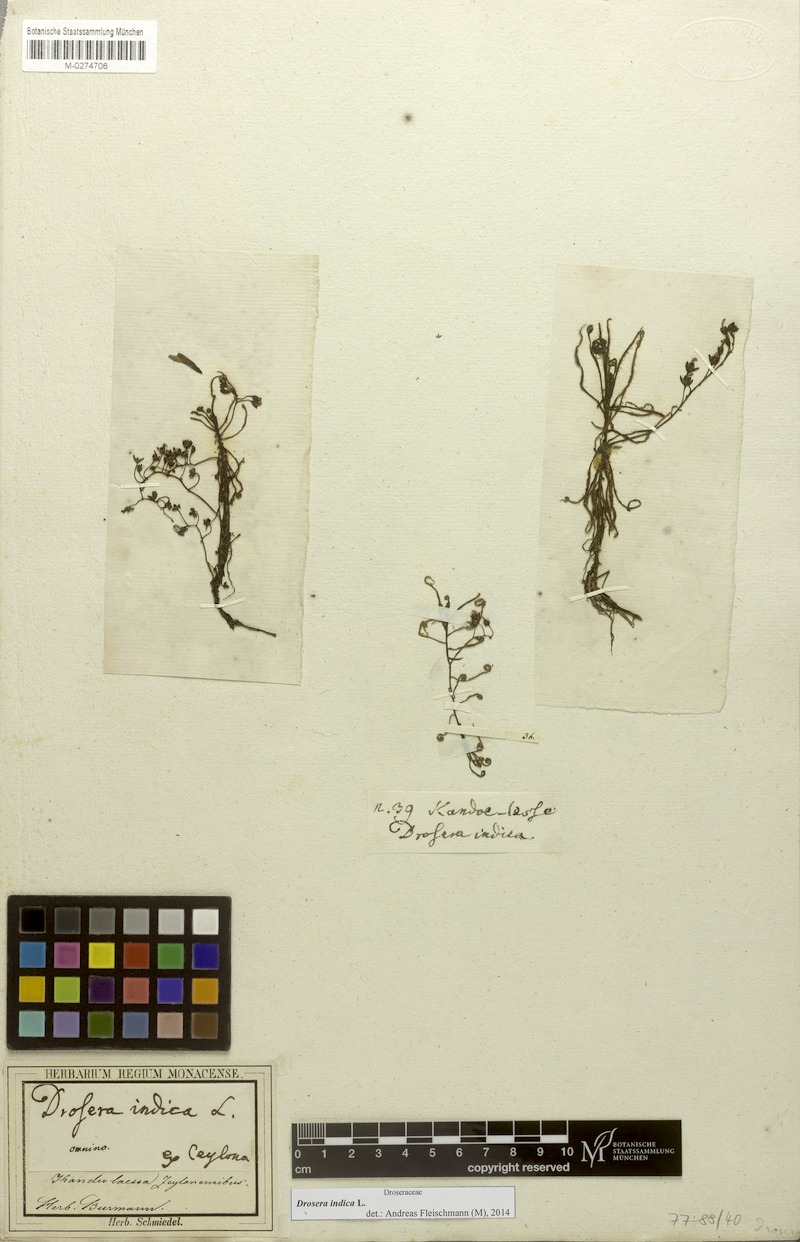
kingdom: Plantae
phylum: Tracheophyta
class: Magnoliopsida
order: Caryophyllales
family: Droseraceae
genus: Drosera
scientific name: Drosera indica
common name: Indian sundew
